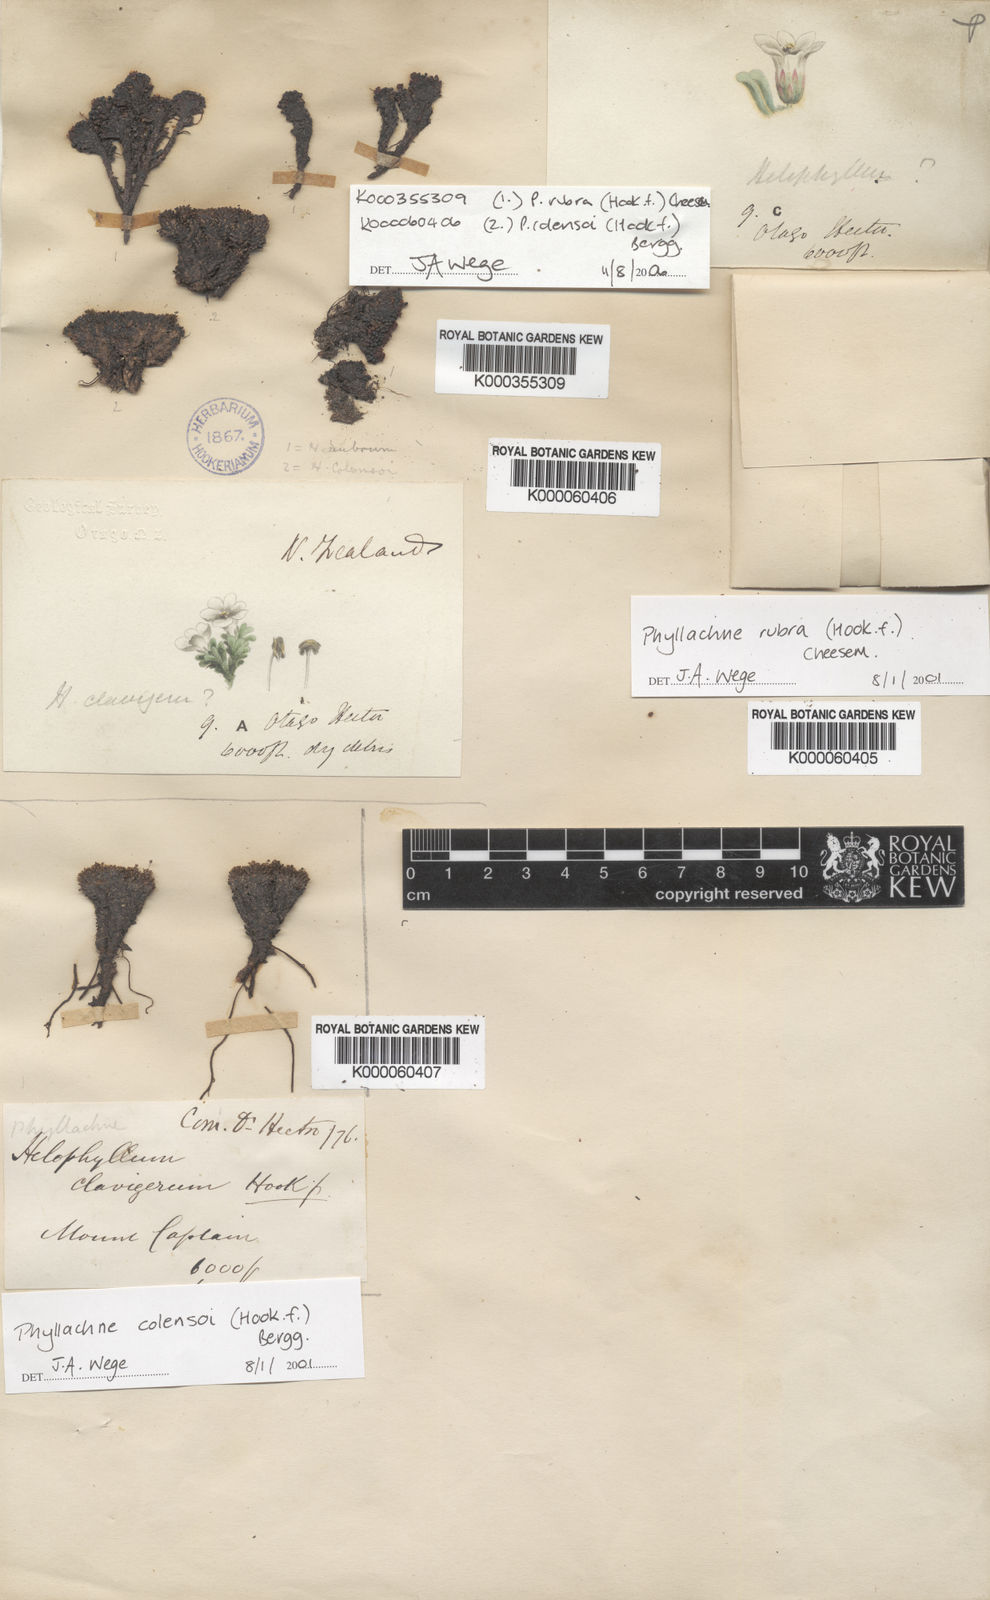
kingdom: Plantae
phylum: Tracheophyta
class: Magnoliopsida
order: Asterales
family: Stylidiaceae
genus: Phyllachne
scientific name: Phyllachne colensoi
